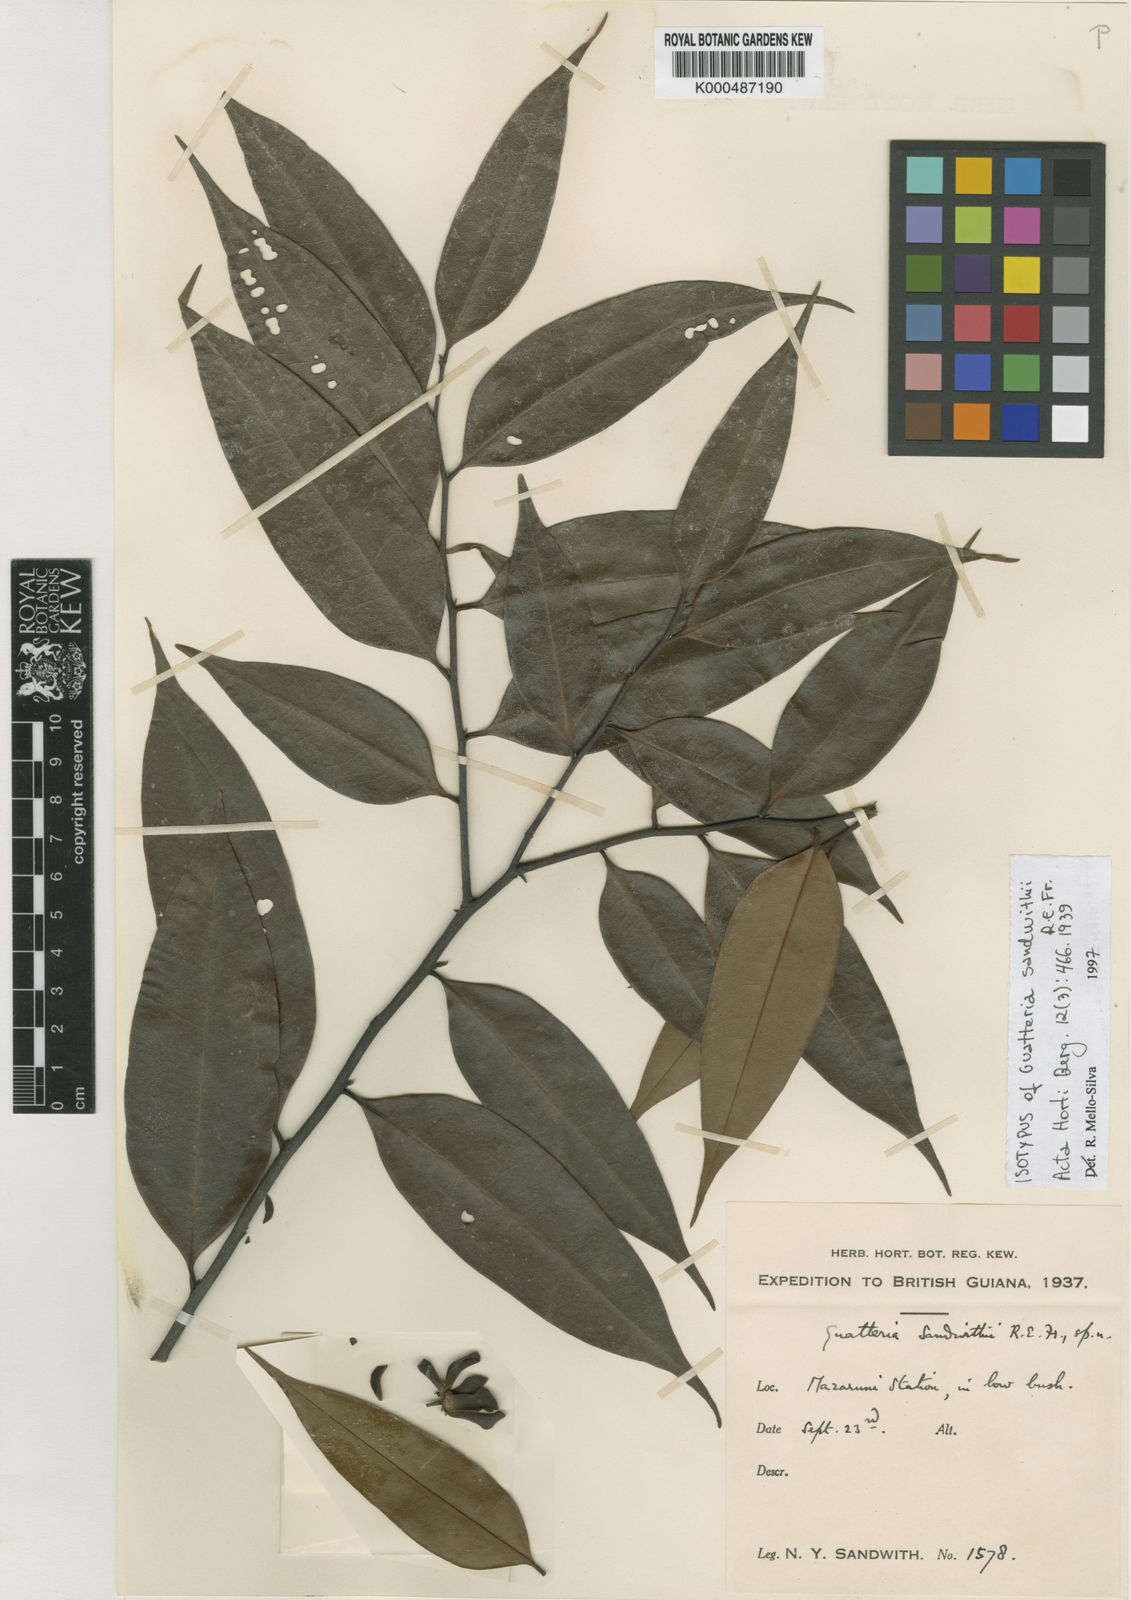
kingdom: Plantae
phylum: Tracheophyta
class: Magnoliopsida
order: Magnoliales
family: Annonaceae
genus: Guatteria
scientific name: Guatteria schomburgkiana
